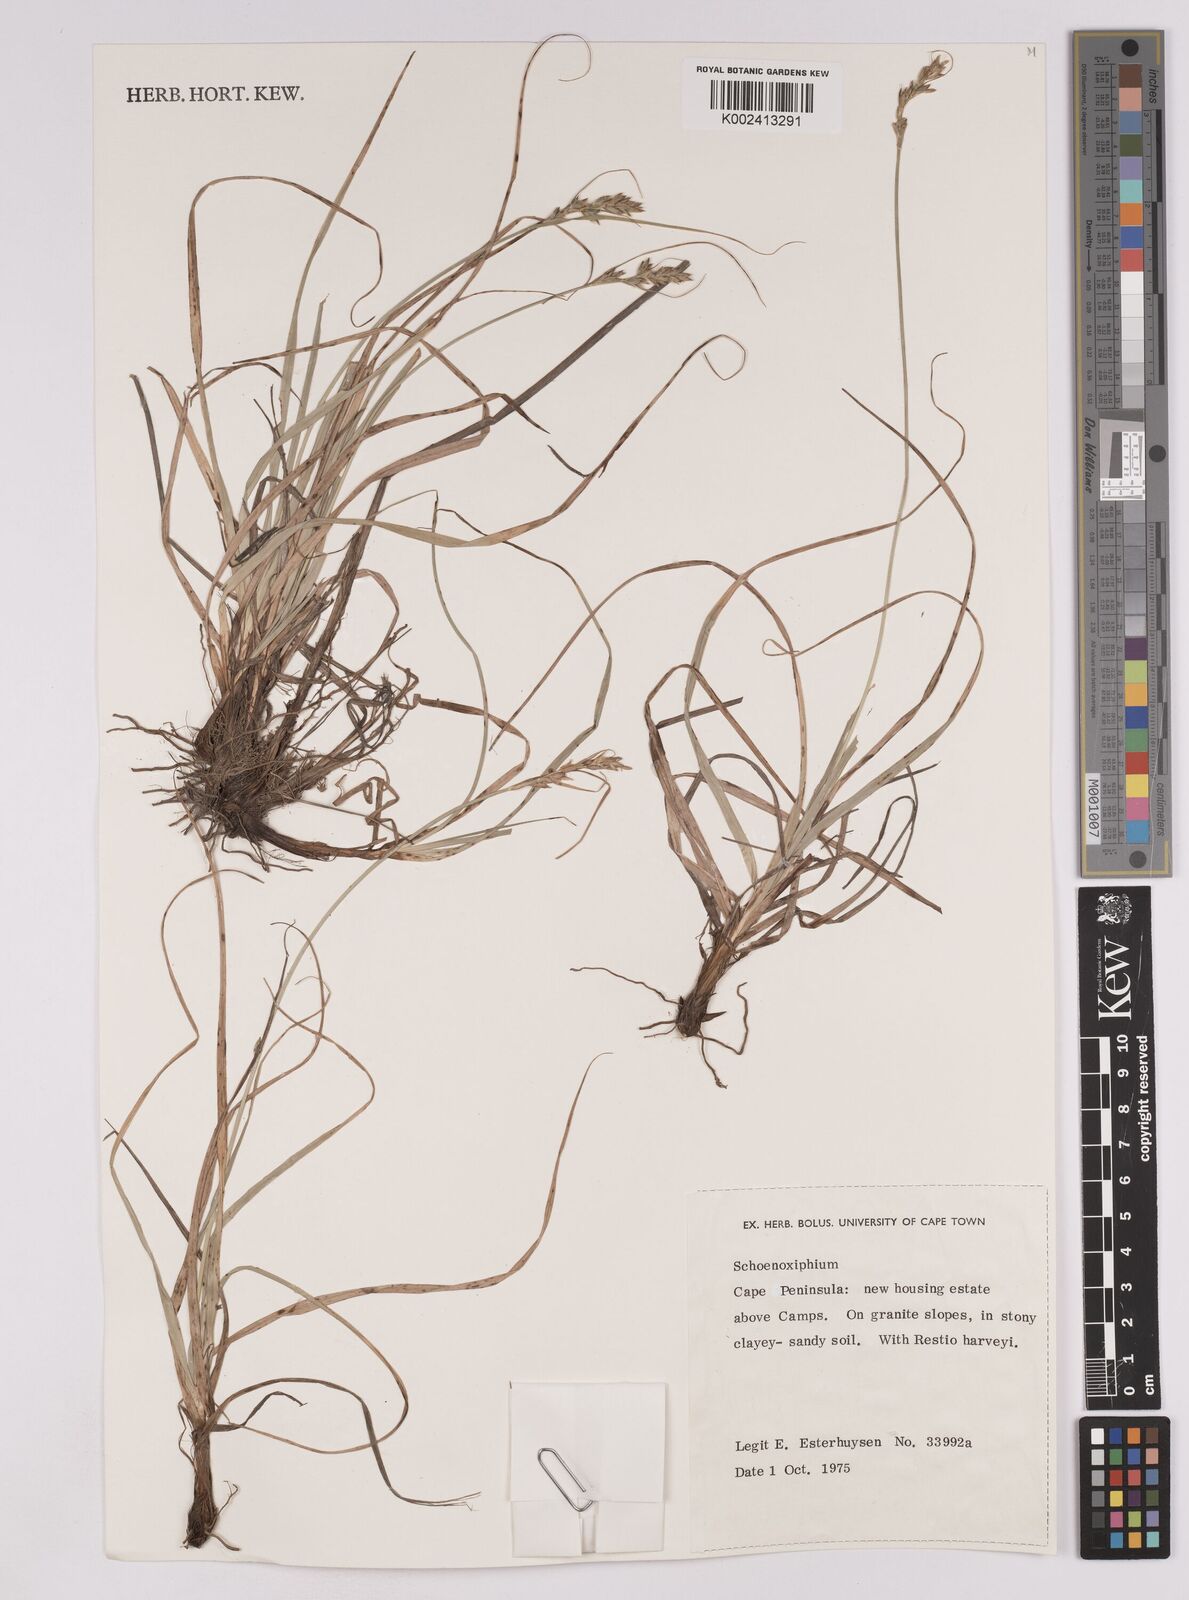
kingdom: Plantae
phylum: Tracheophyta
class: Liliopsida
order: Poales
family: Cyperaceae
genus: Carex
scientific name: Carex
